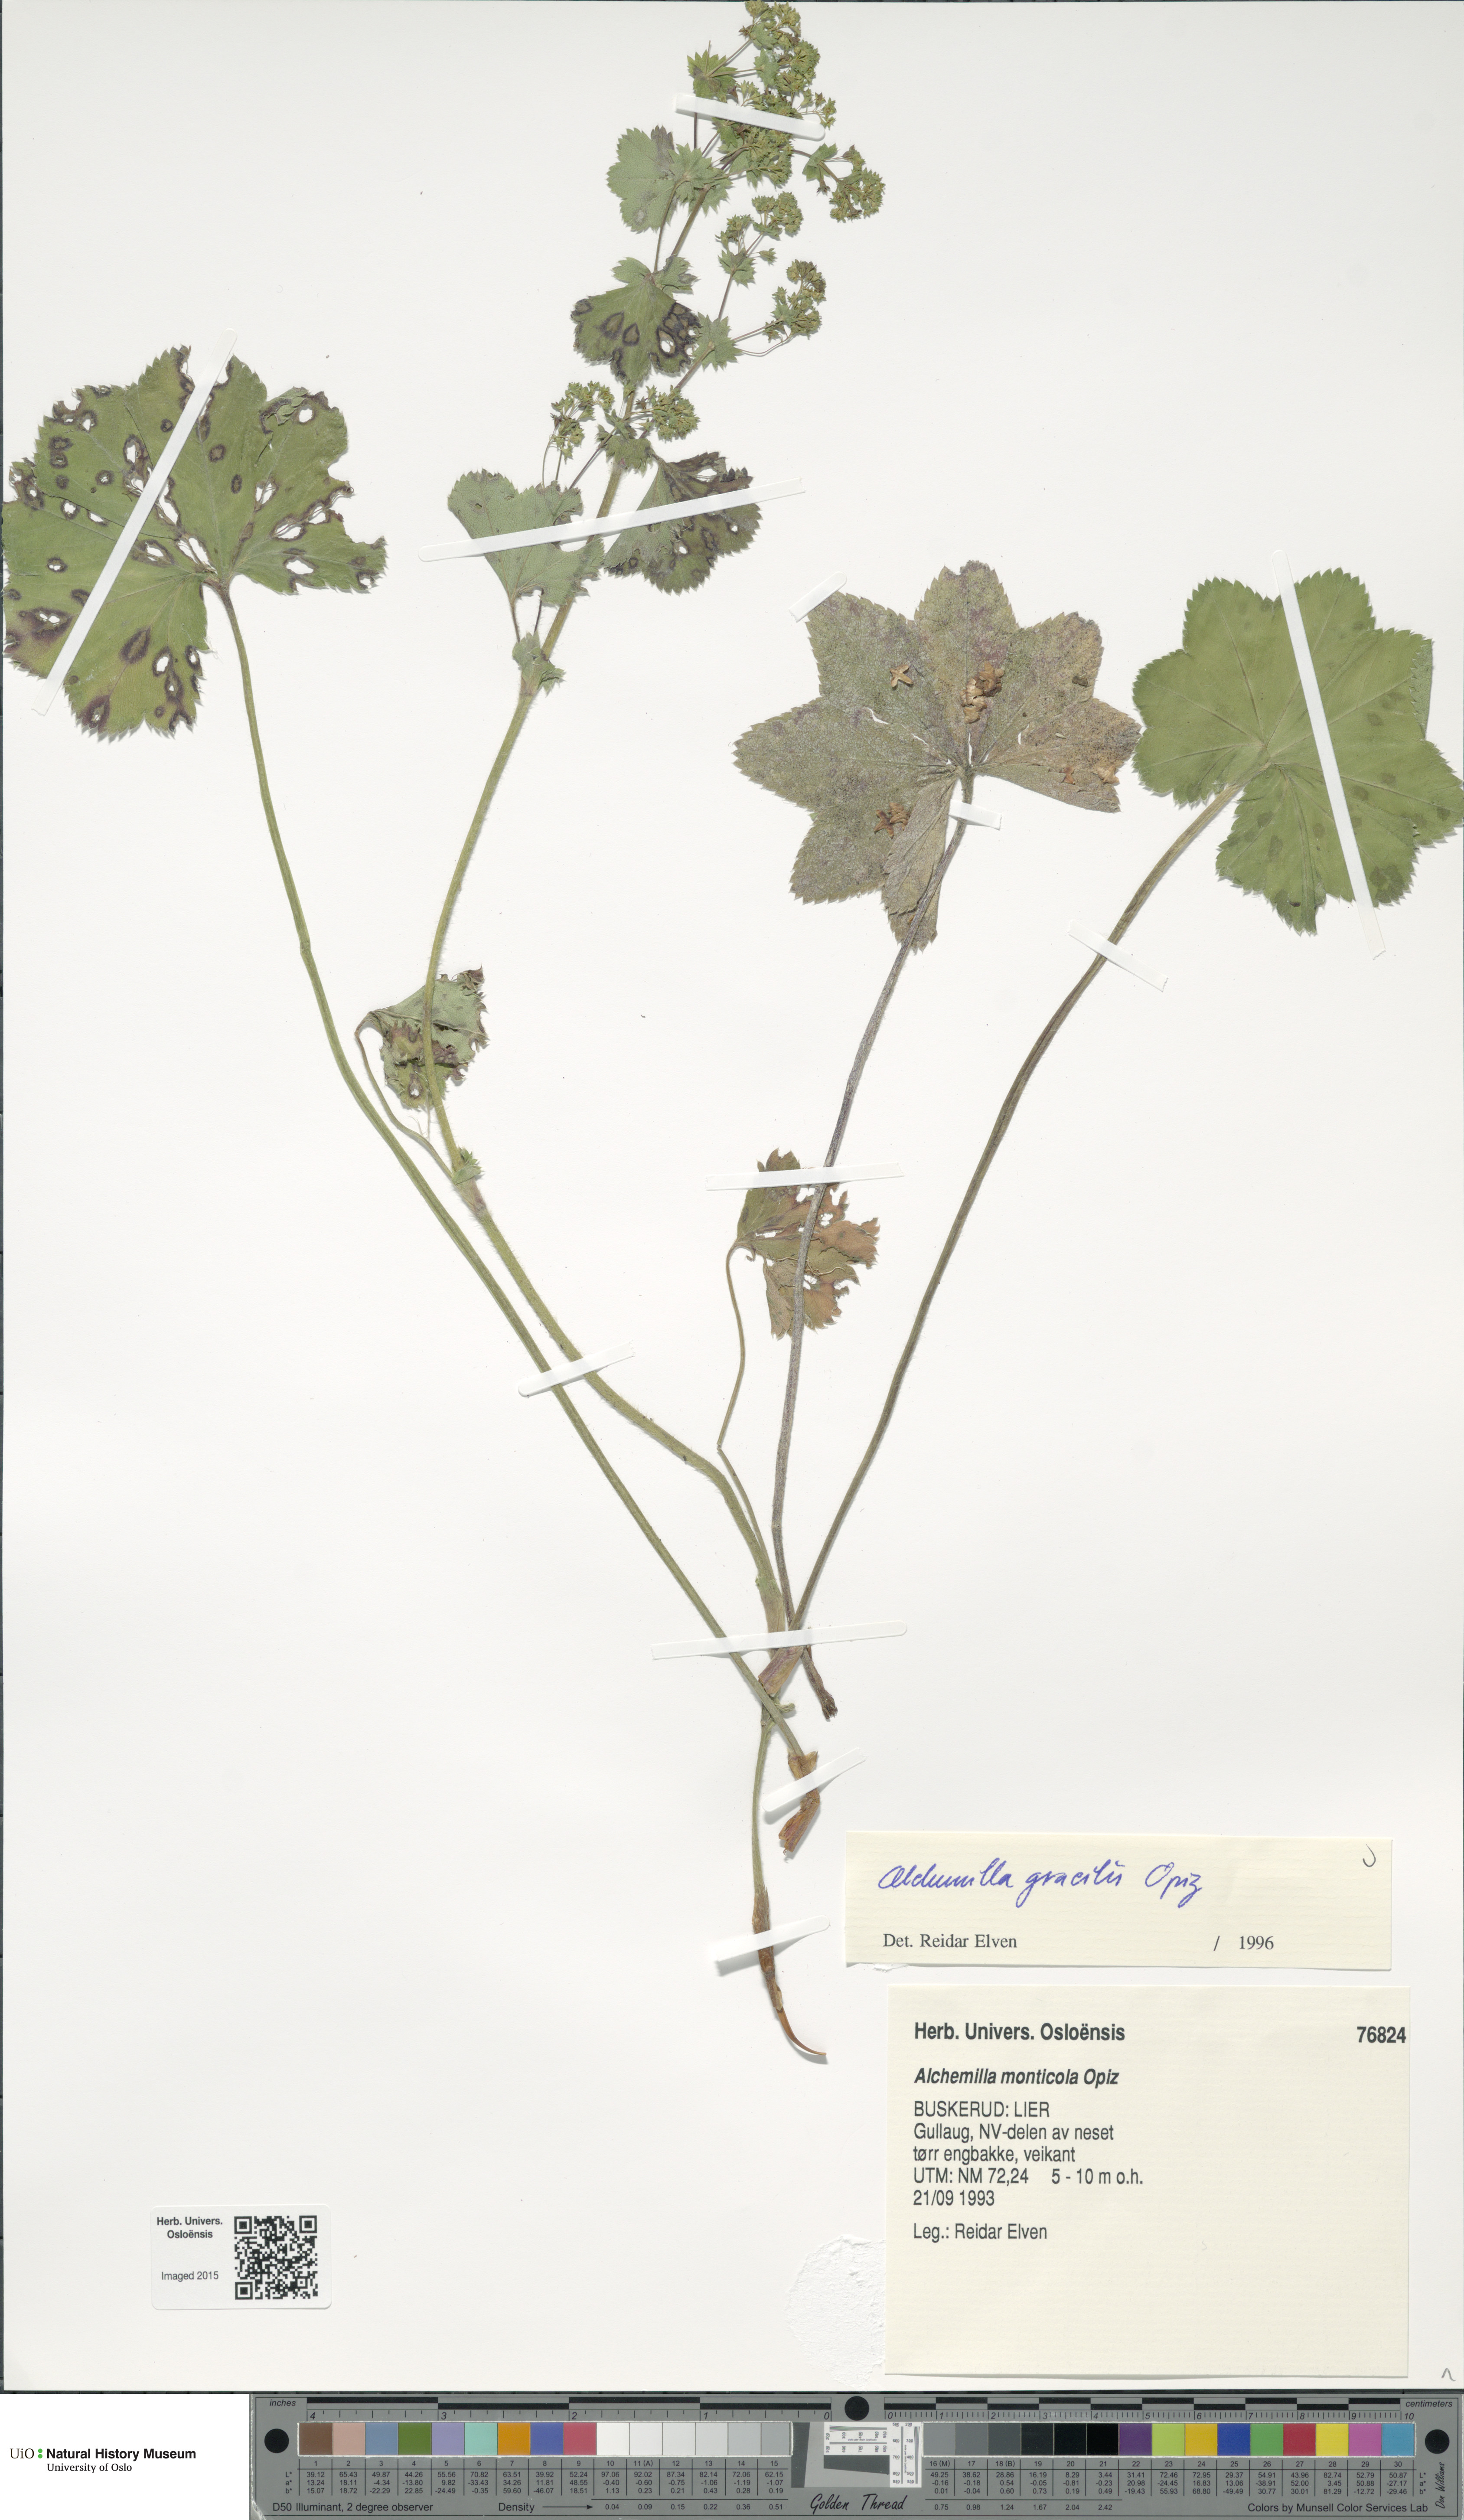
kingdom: Plantae
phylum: Tracheophyta
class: Magnoliopsida
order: Rosales
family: Rosaceae
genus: Alchemilla
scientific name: Alchemilla micans
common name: Gleaming lady's mantle
